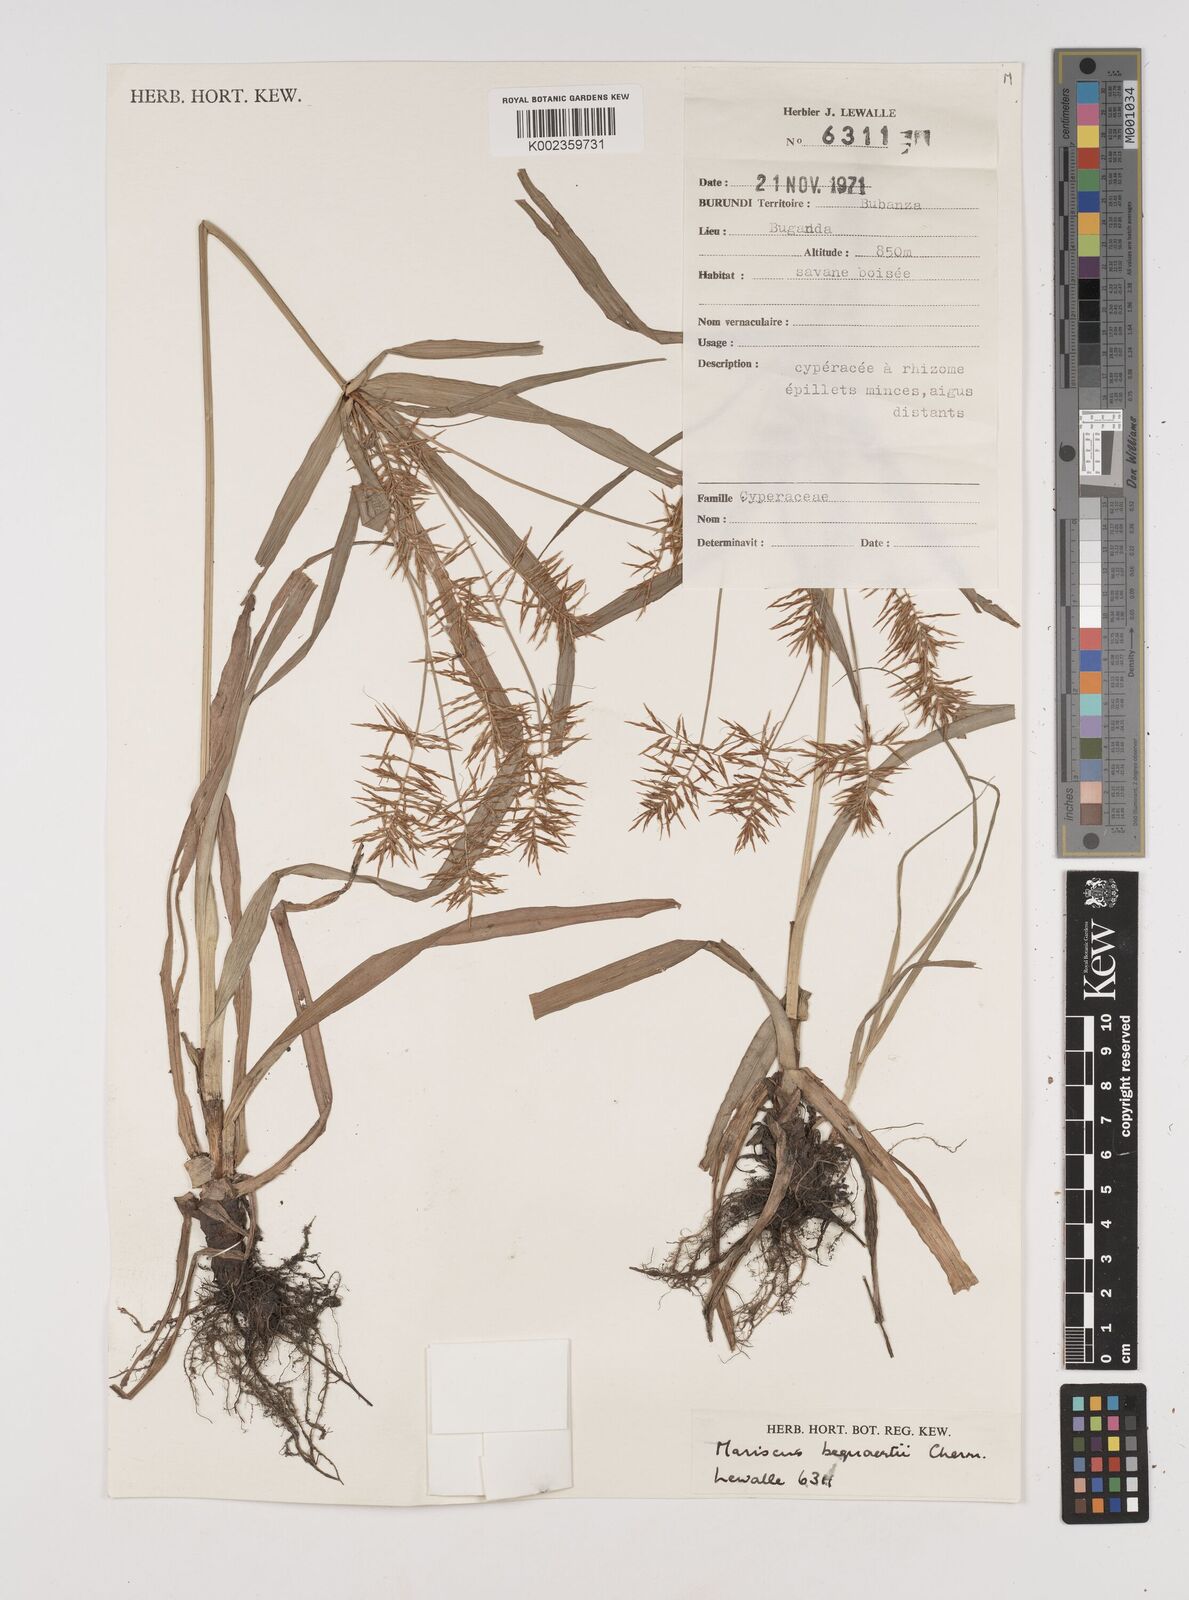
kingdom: Plantae
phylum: Tracheophyta
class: Liliopsida
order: Poales
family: Cyperaceae
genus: Cyperus
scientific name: Cyperus ferrugineoviridis
